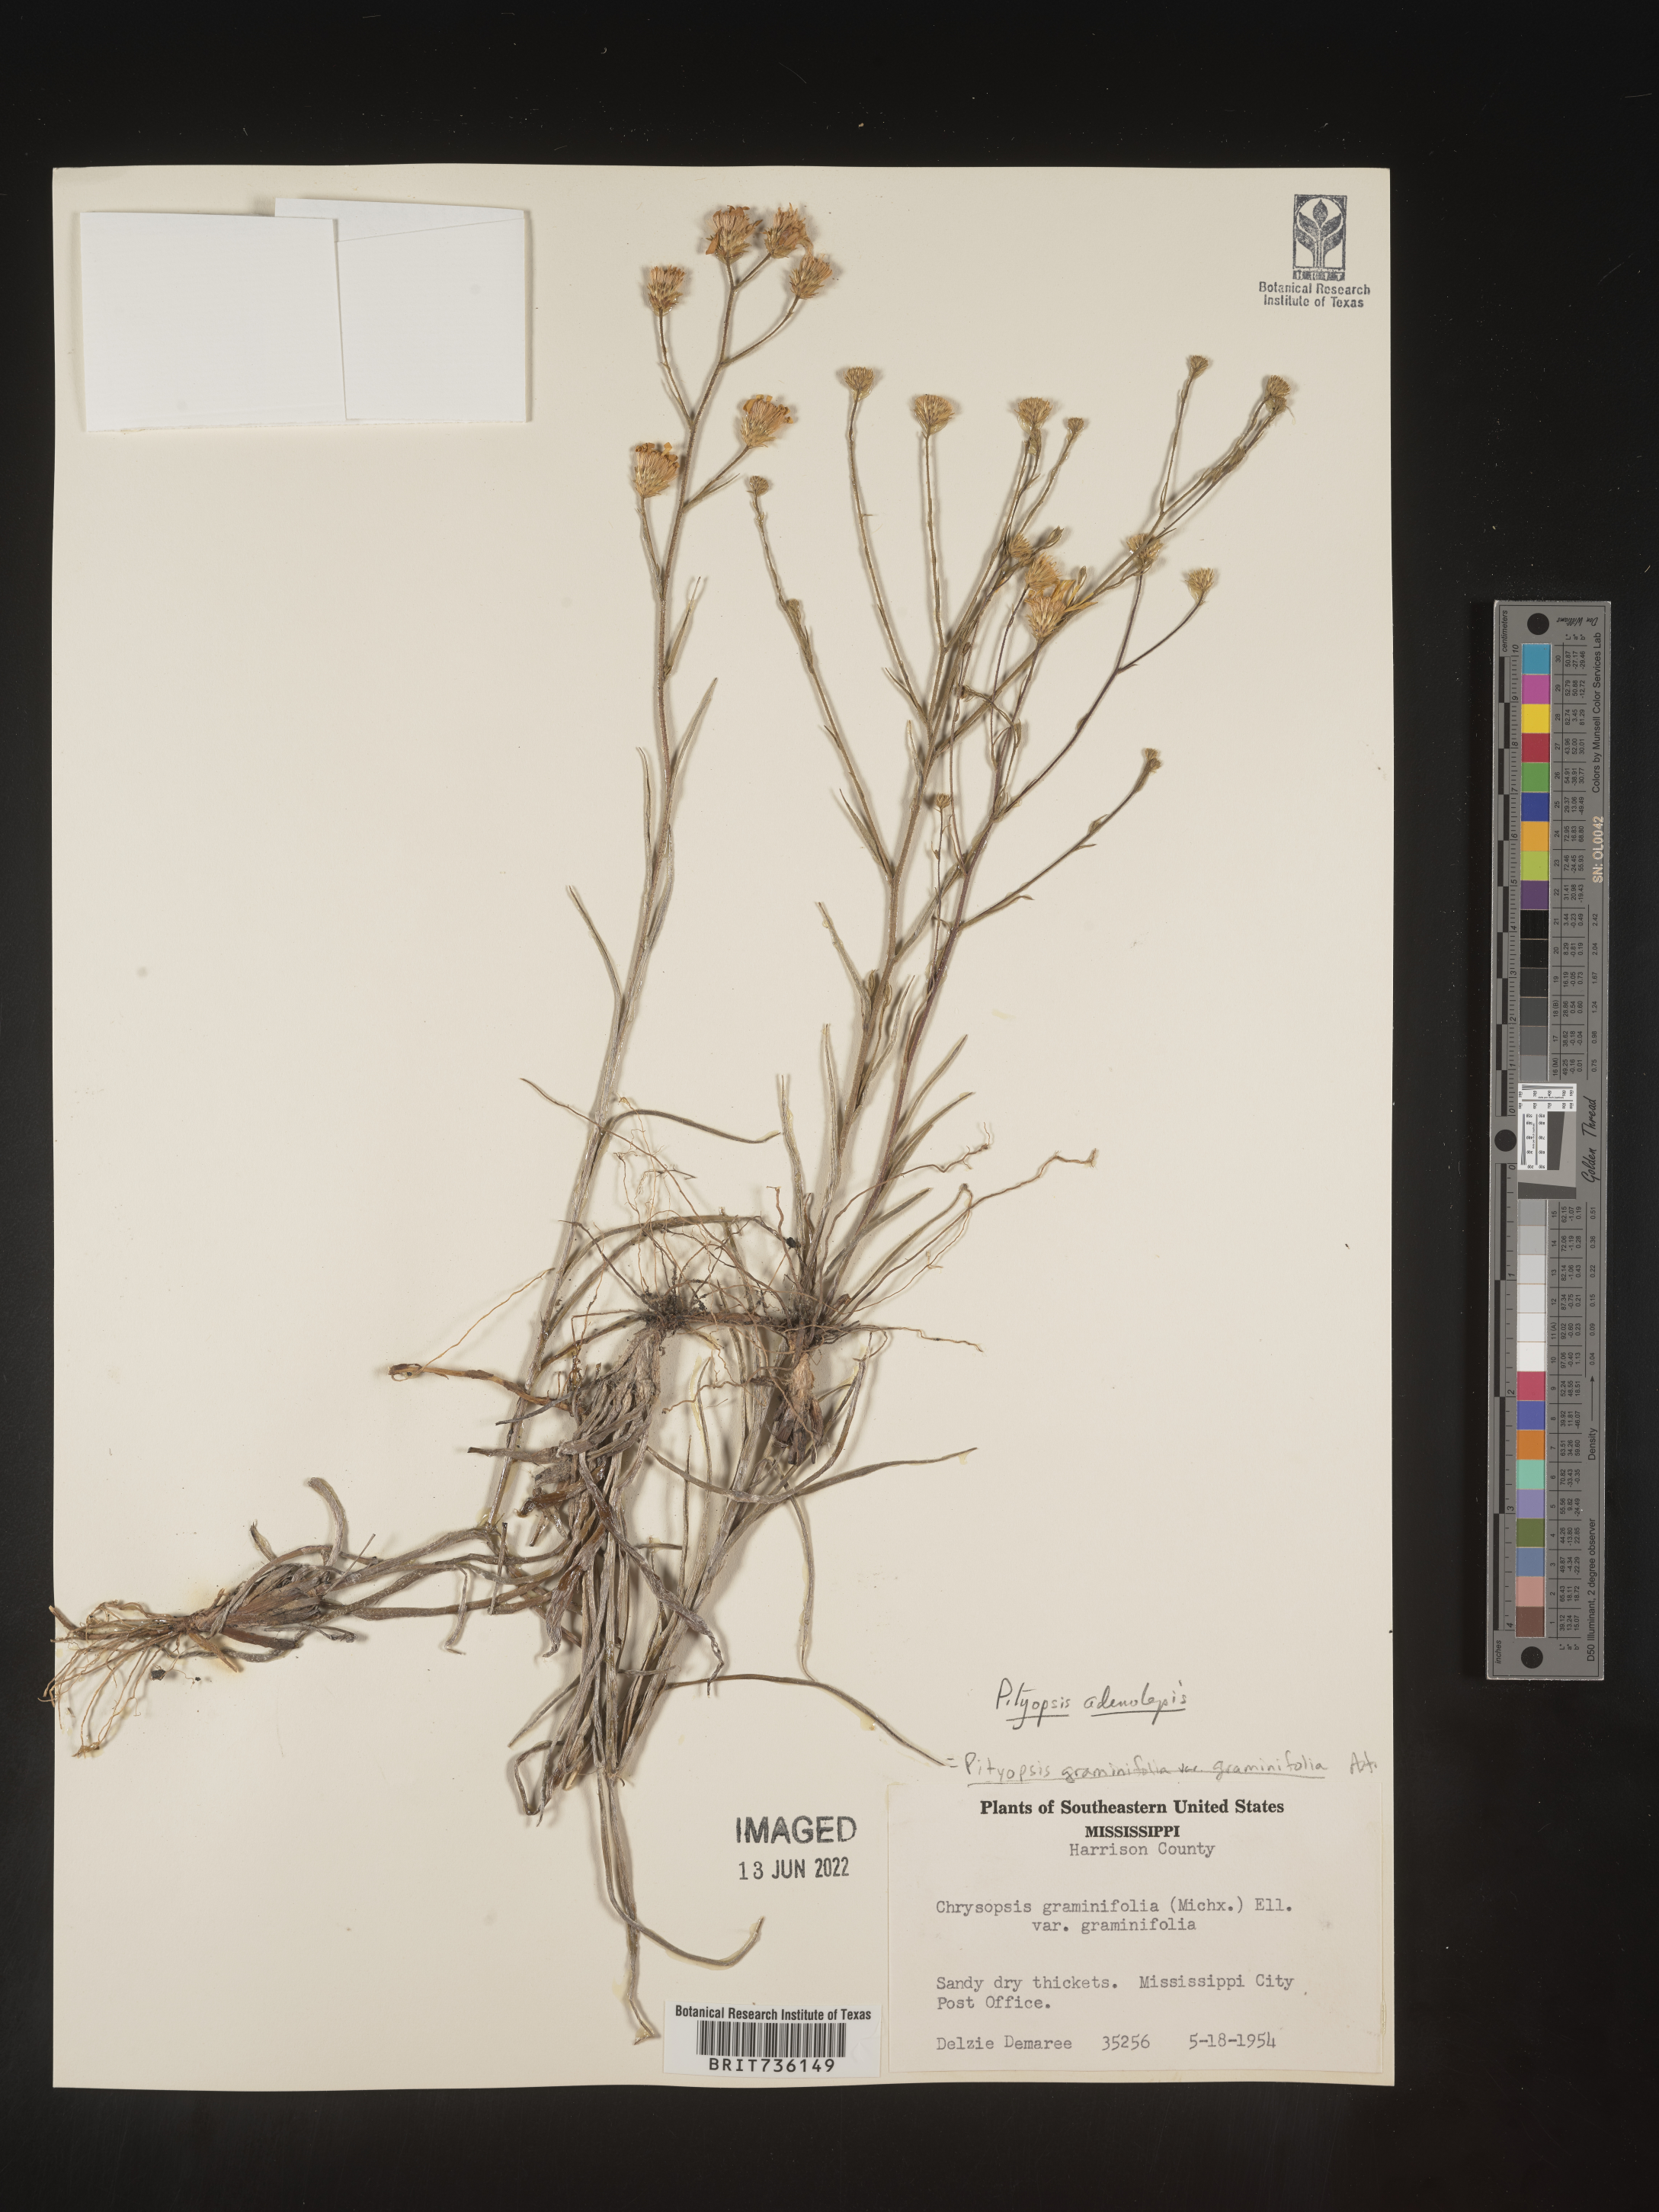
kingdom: Plantae
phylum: Tracheophyta
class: Magnoliopsida
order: Asterales
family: Asteraceae
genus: Pityopsis
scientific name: Pityopsis aspera
